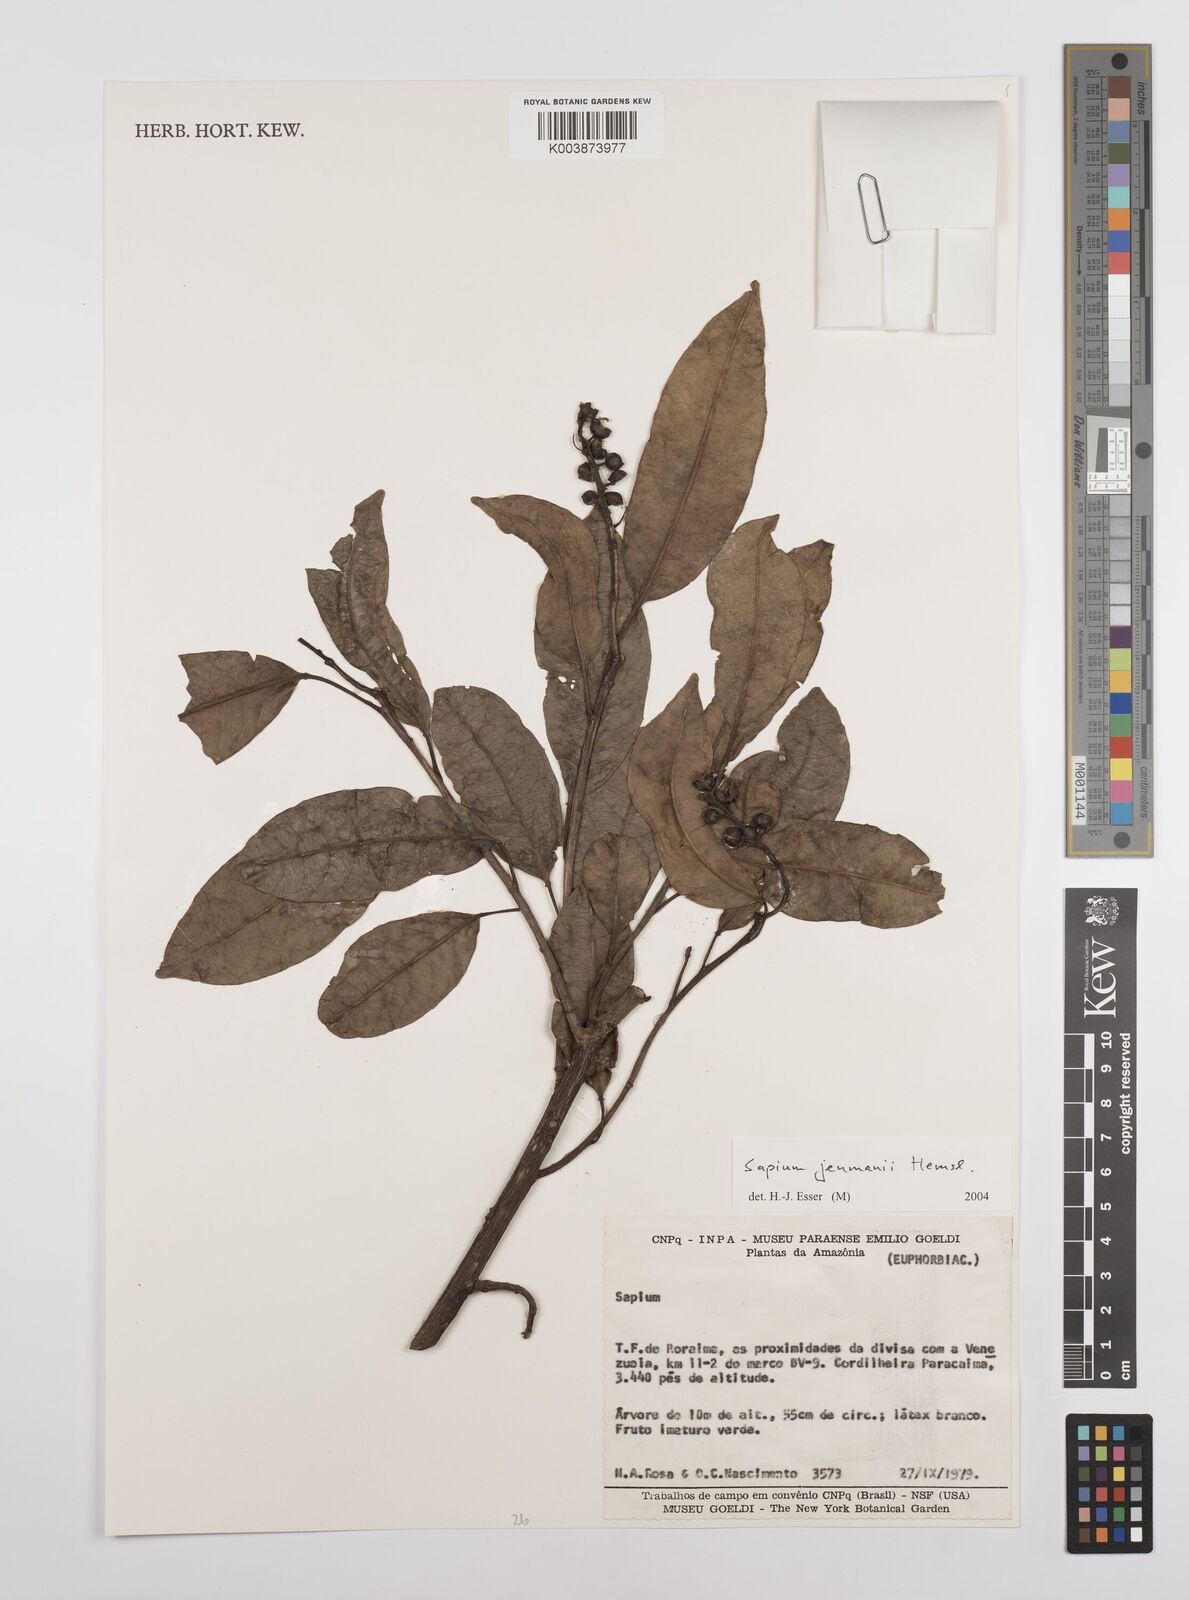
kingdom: Plantae
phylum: Tracheophyta
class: Magnoliopsida
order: Malpighiales
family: Euphorbiaceae
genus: Sapium
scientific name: Sapium jenmannii
